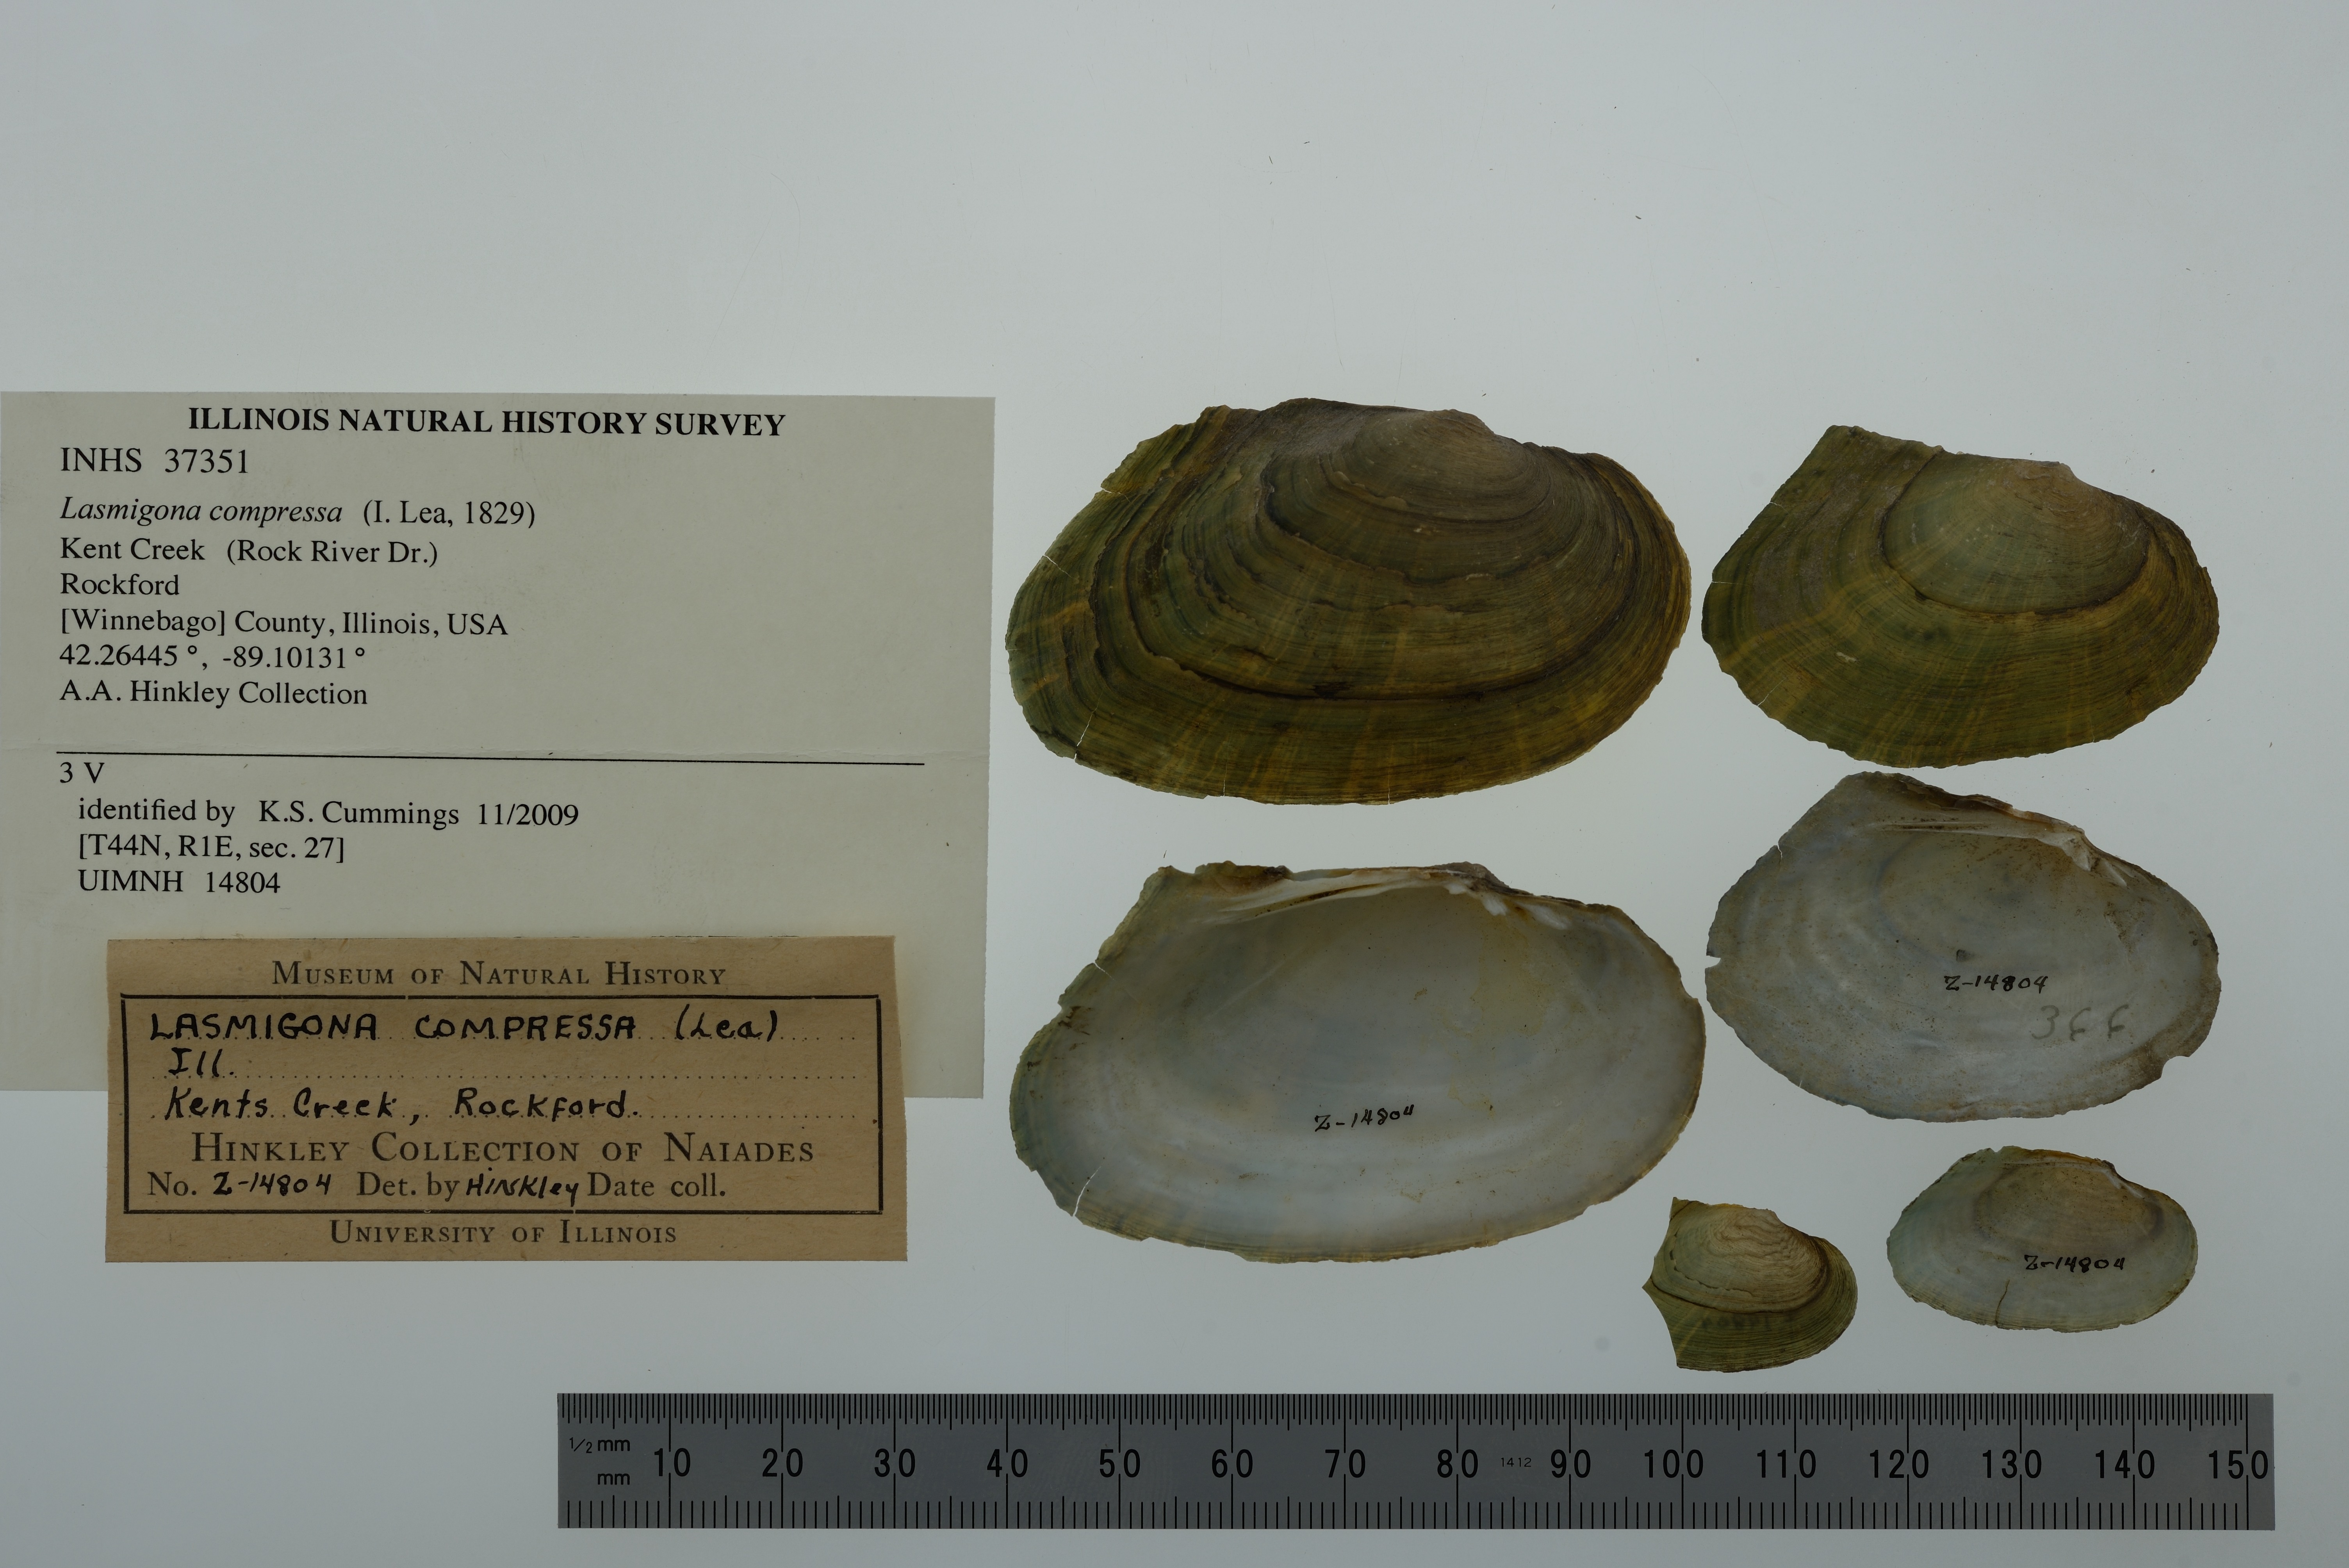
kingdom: Animalia
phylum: Mollusca
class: Bivalvia
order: Unionida
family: Unionidae
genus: Lasmigona
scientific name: Lasmigona compressa
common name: Creek heelsplitter
